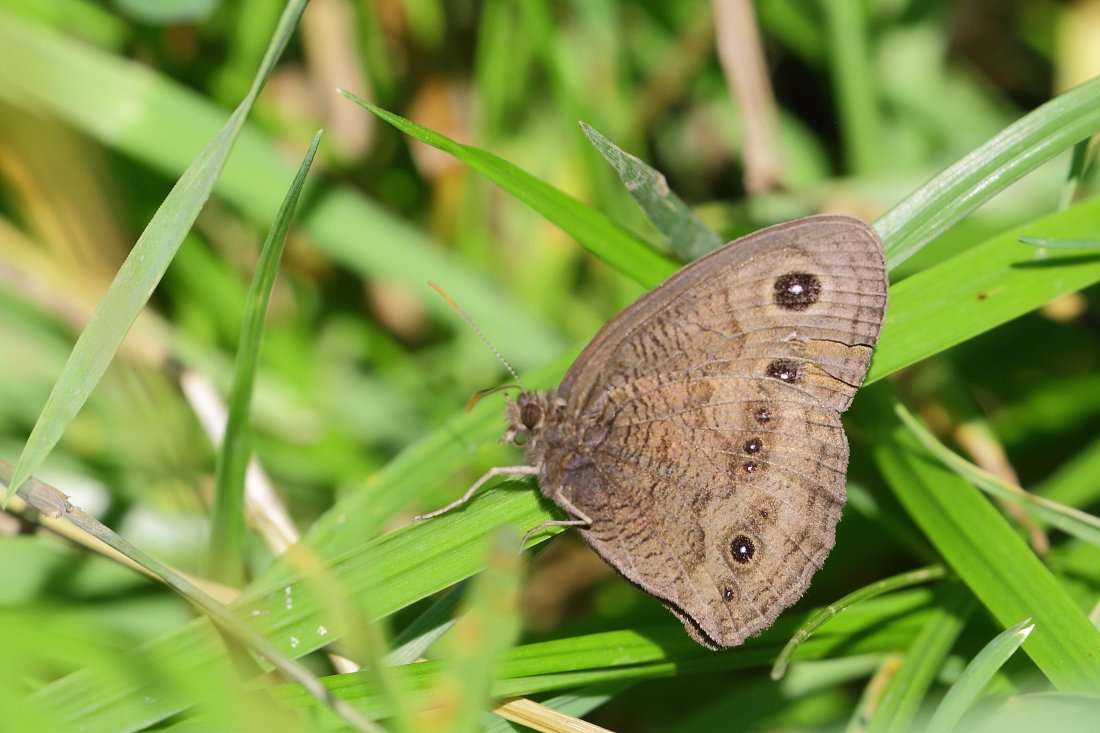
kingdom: Animalia
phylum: Arthropoda
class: Insecta
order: Lepidoptera
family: Nymphalidae
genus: Cercyonis
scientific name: Cercyonis pegala
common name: Common Wood-Nymph
